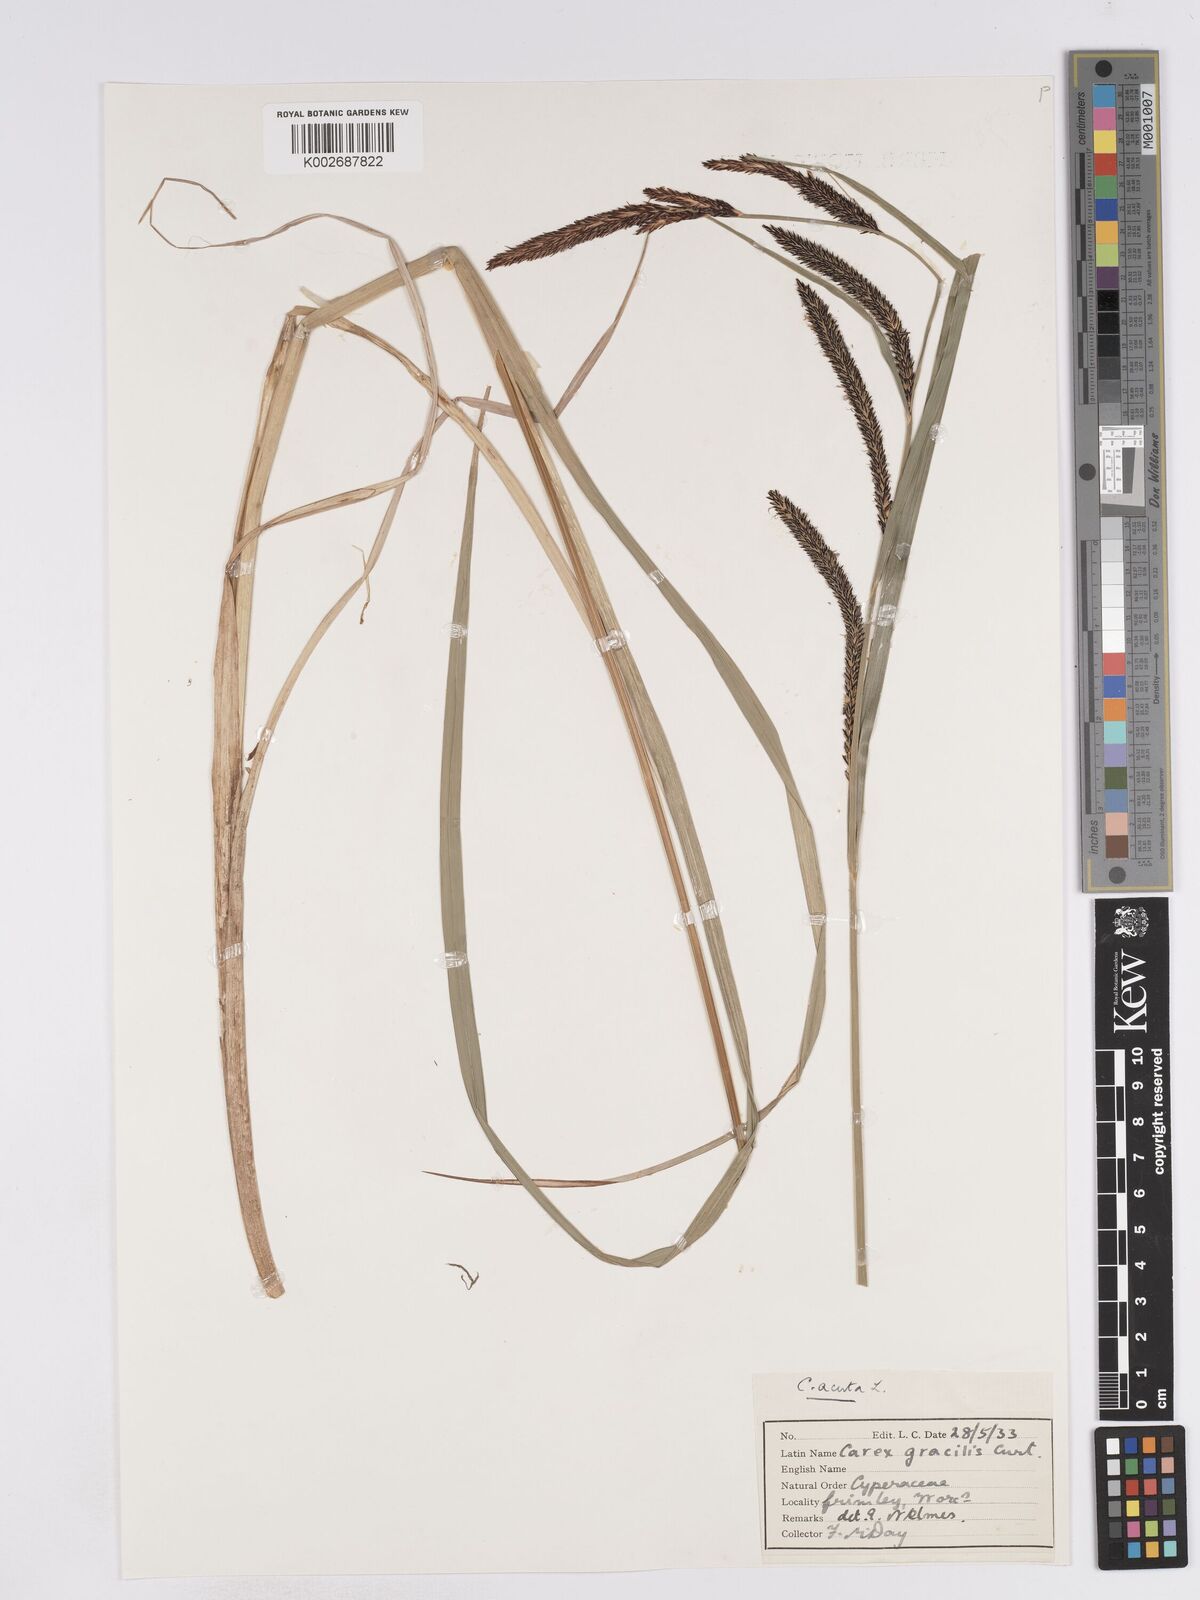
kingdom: Plantae
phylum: Tracheophyta
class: Liliopsida
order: Poales
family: Cyperaceae
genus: Carex
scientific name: Carex acuta
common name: Slender tufted-sedge
